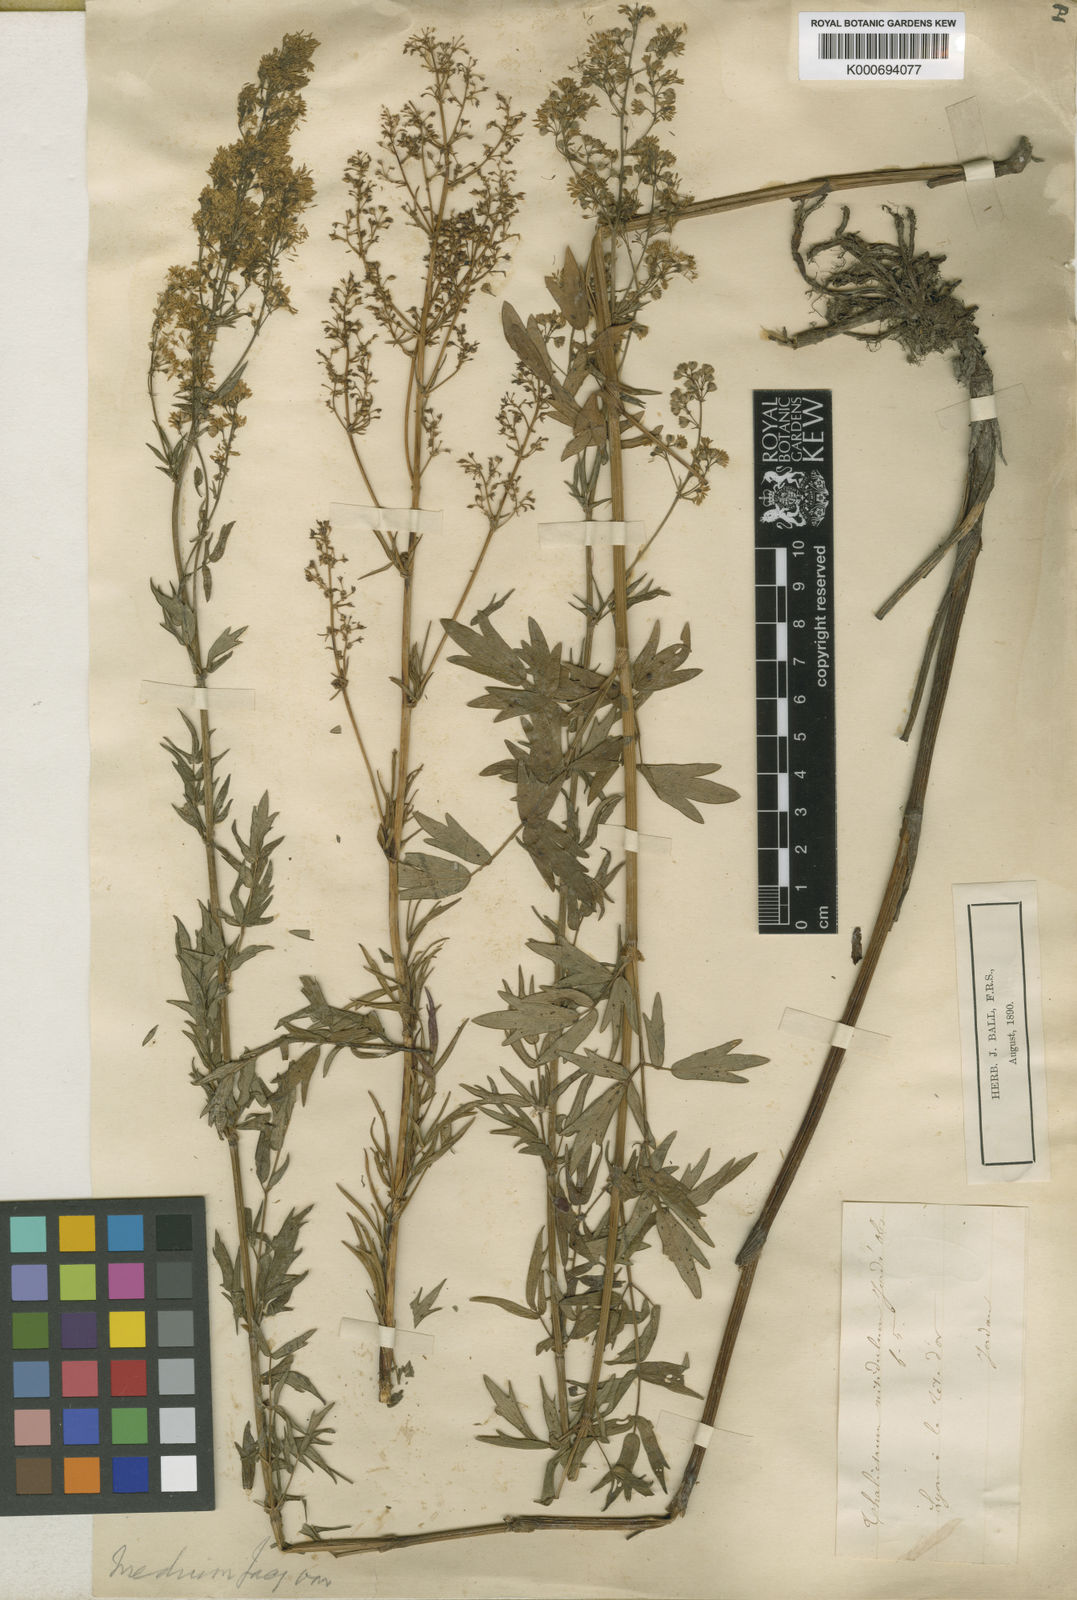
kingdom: Plantae
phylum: Tracheophyta
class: Magnoliopsida
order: Ranunculales
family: Ranunculaceae
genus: Thalictrum
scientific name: Thalictrum simplex
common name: Small meadow-rue
